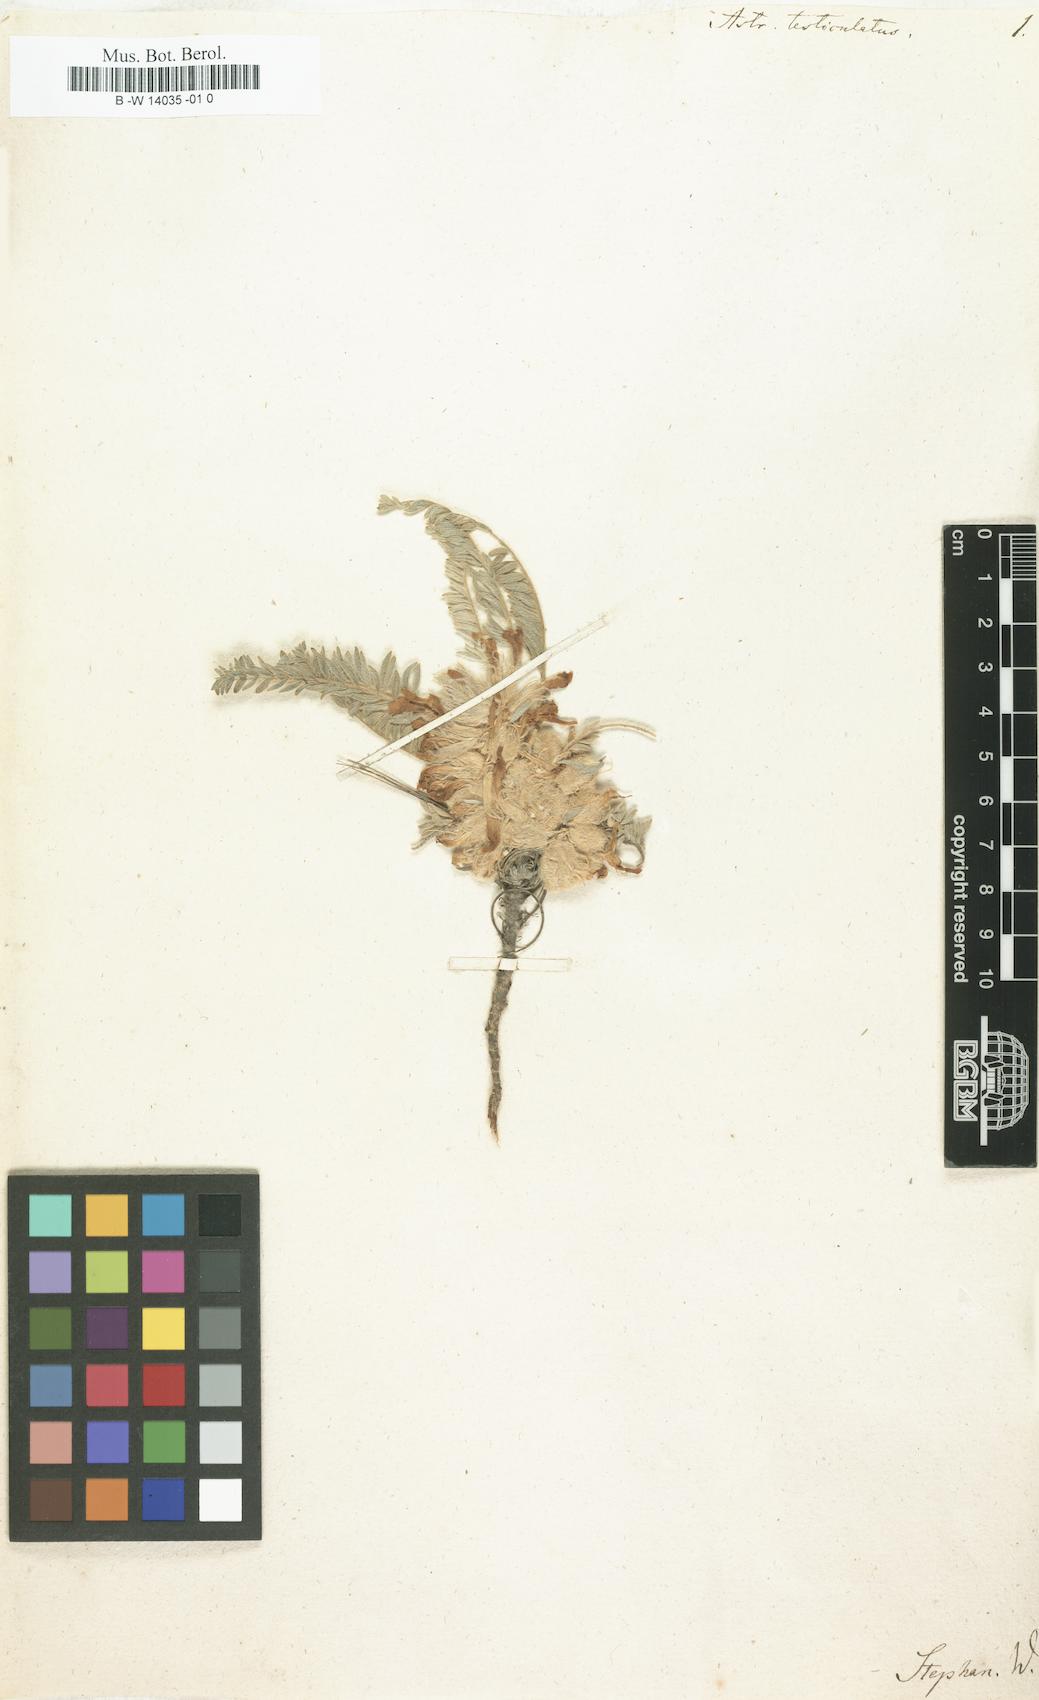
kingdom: Plantae
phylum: Tracheophyta
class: Magnoliopsida
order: Fabales
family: Fabaceae
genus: Astragalus
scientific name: Astragalus testiculatus
